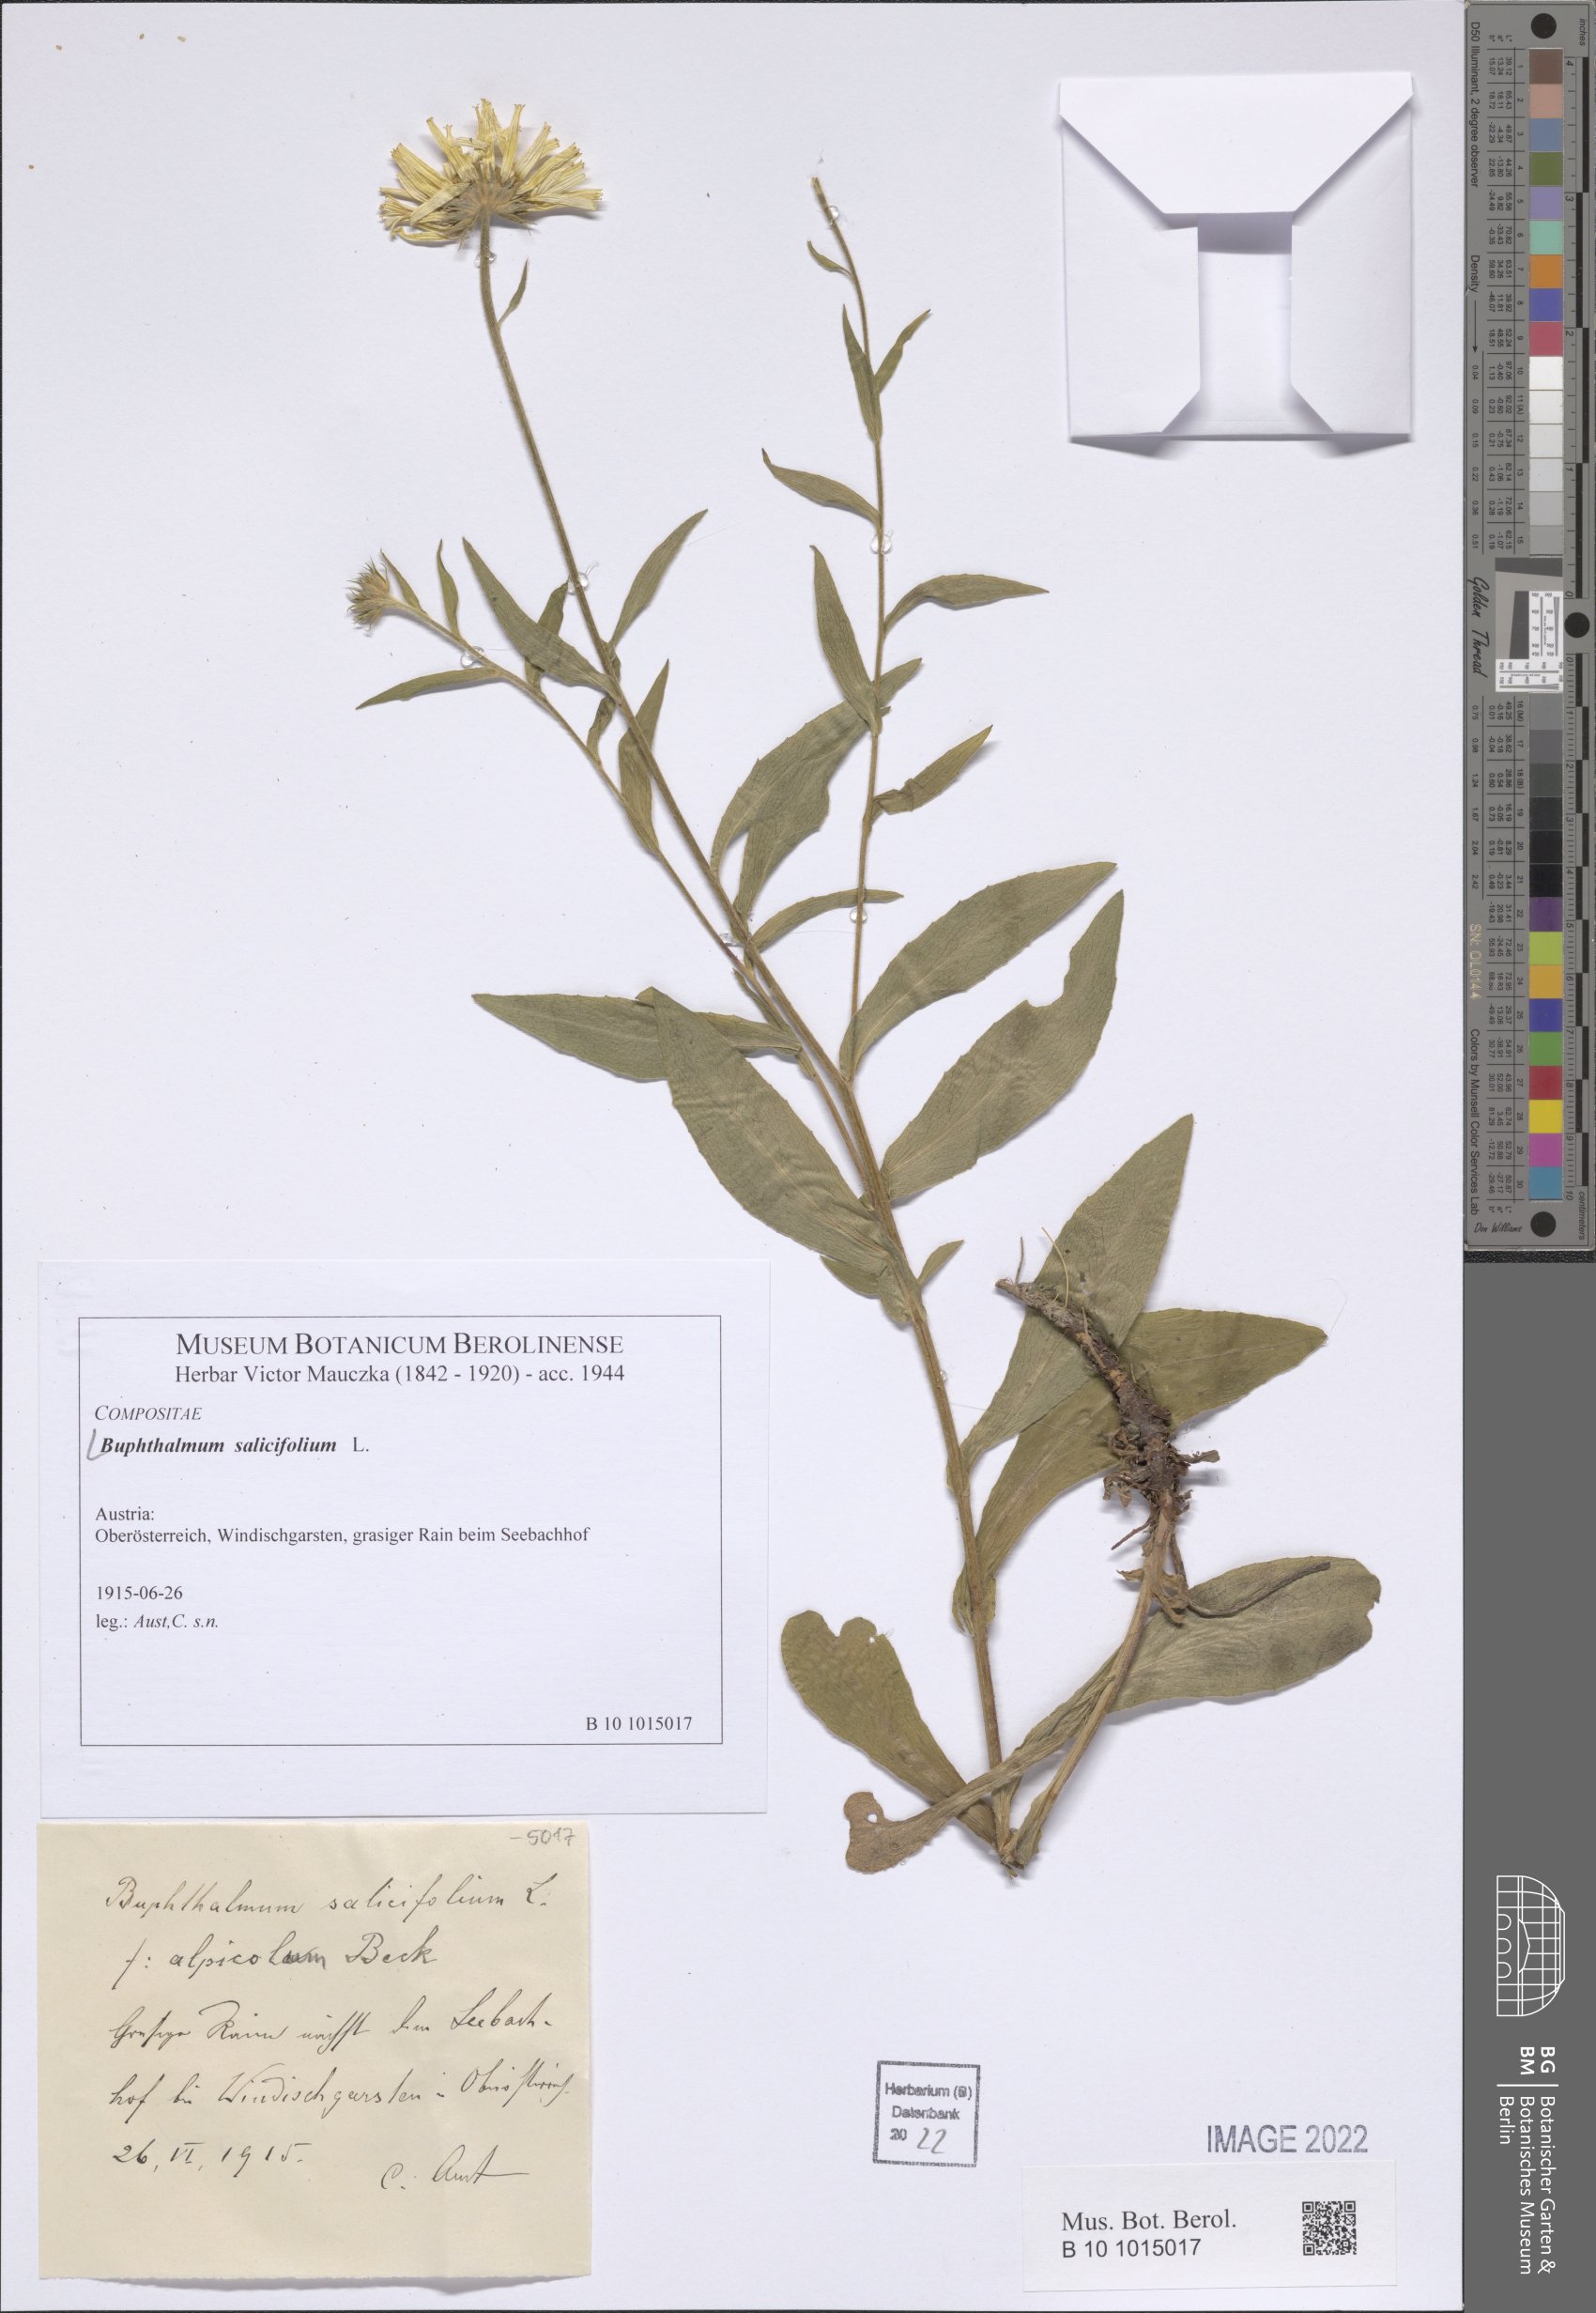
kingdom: Plantae
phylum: Tracheophyta
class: Magnoliopsida
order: Asterales
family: Asteraceae
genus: Buphthalmum
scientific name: Buphthalmum salicifolium
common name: Willow-leaved yellow-oxeye
